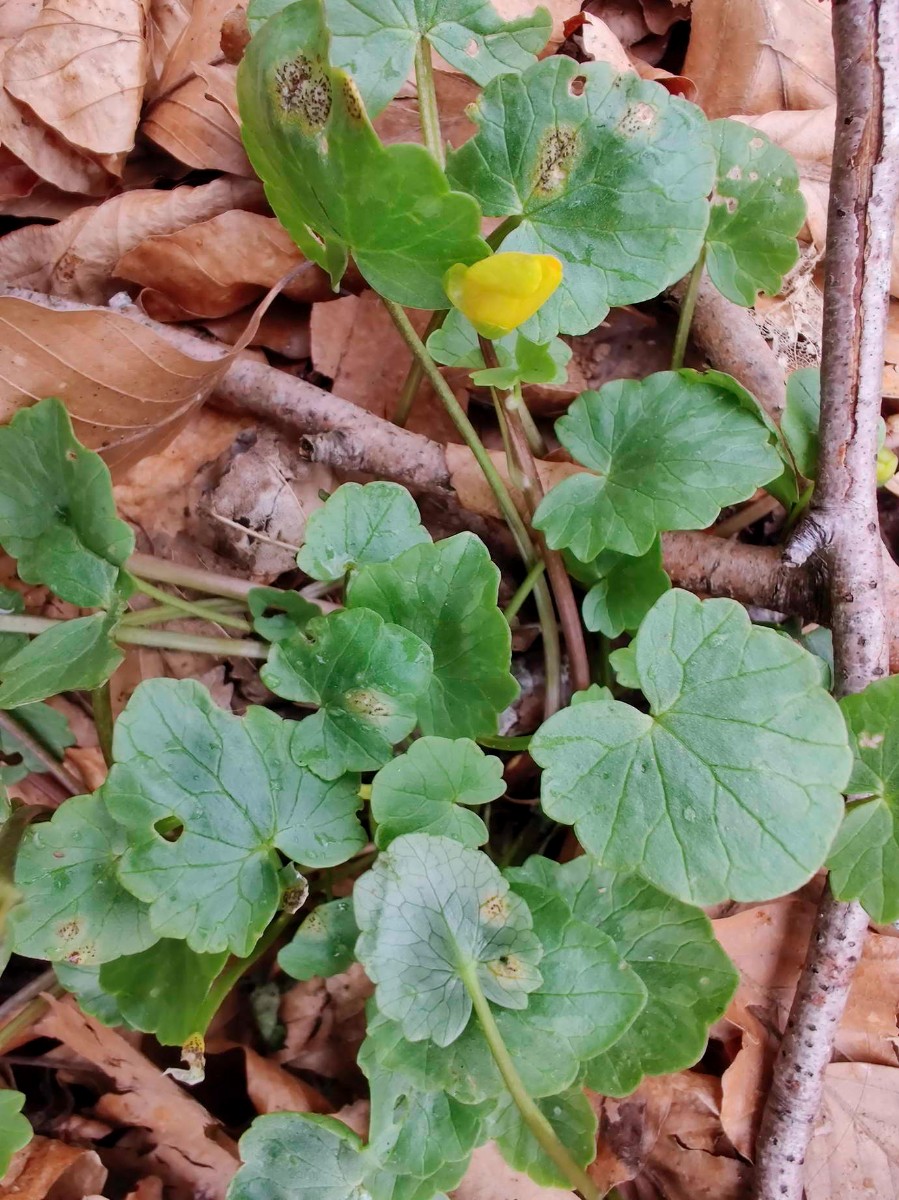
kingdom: Fungi
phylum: Basidiomycota
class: Pucciniomycetes
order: Pucciniales
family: Pucciniaceae
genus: Uromyces
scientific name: Uromyces ficariae
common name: vorterod-encellerust
